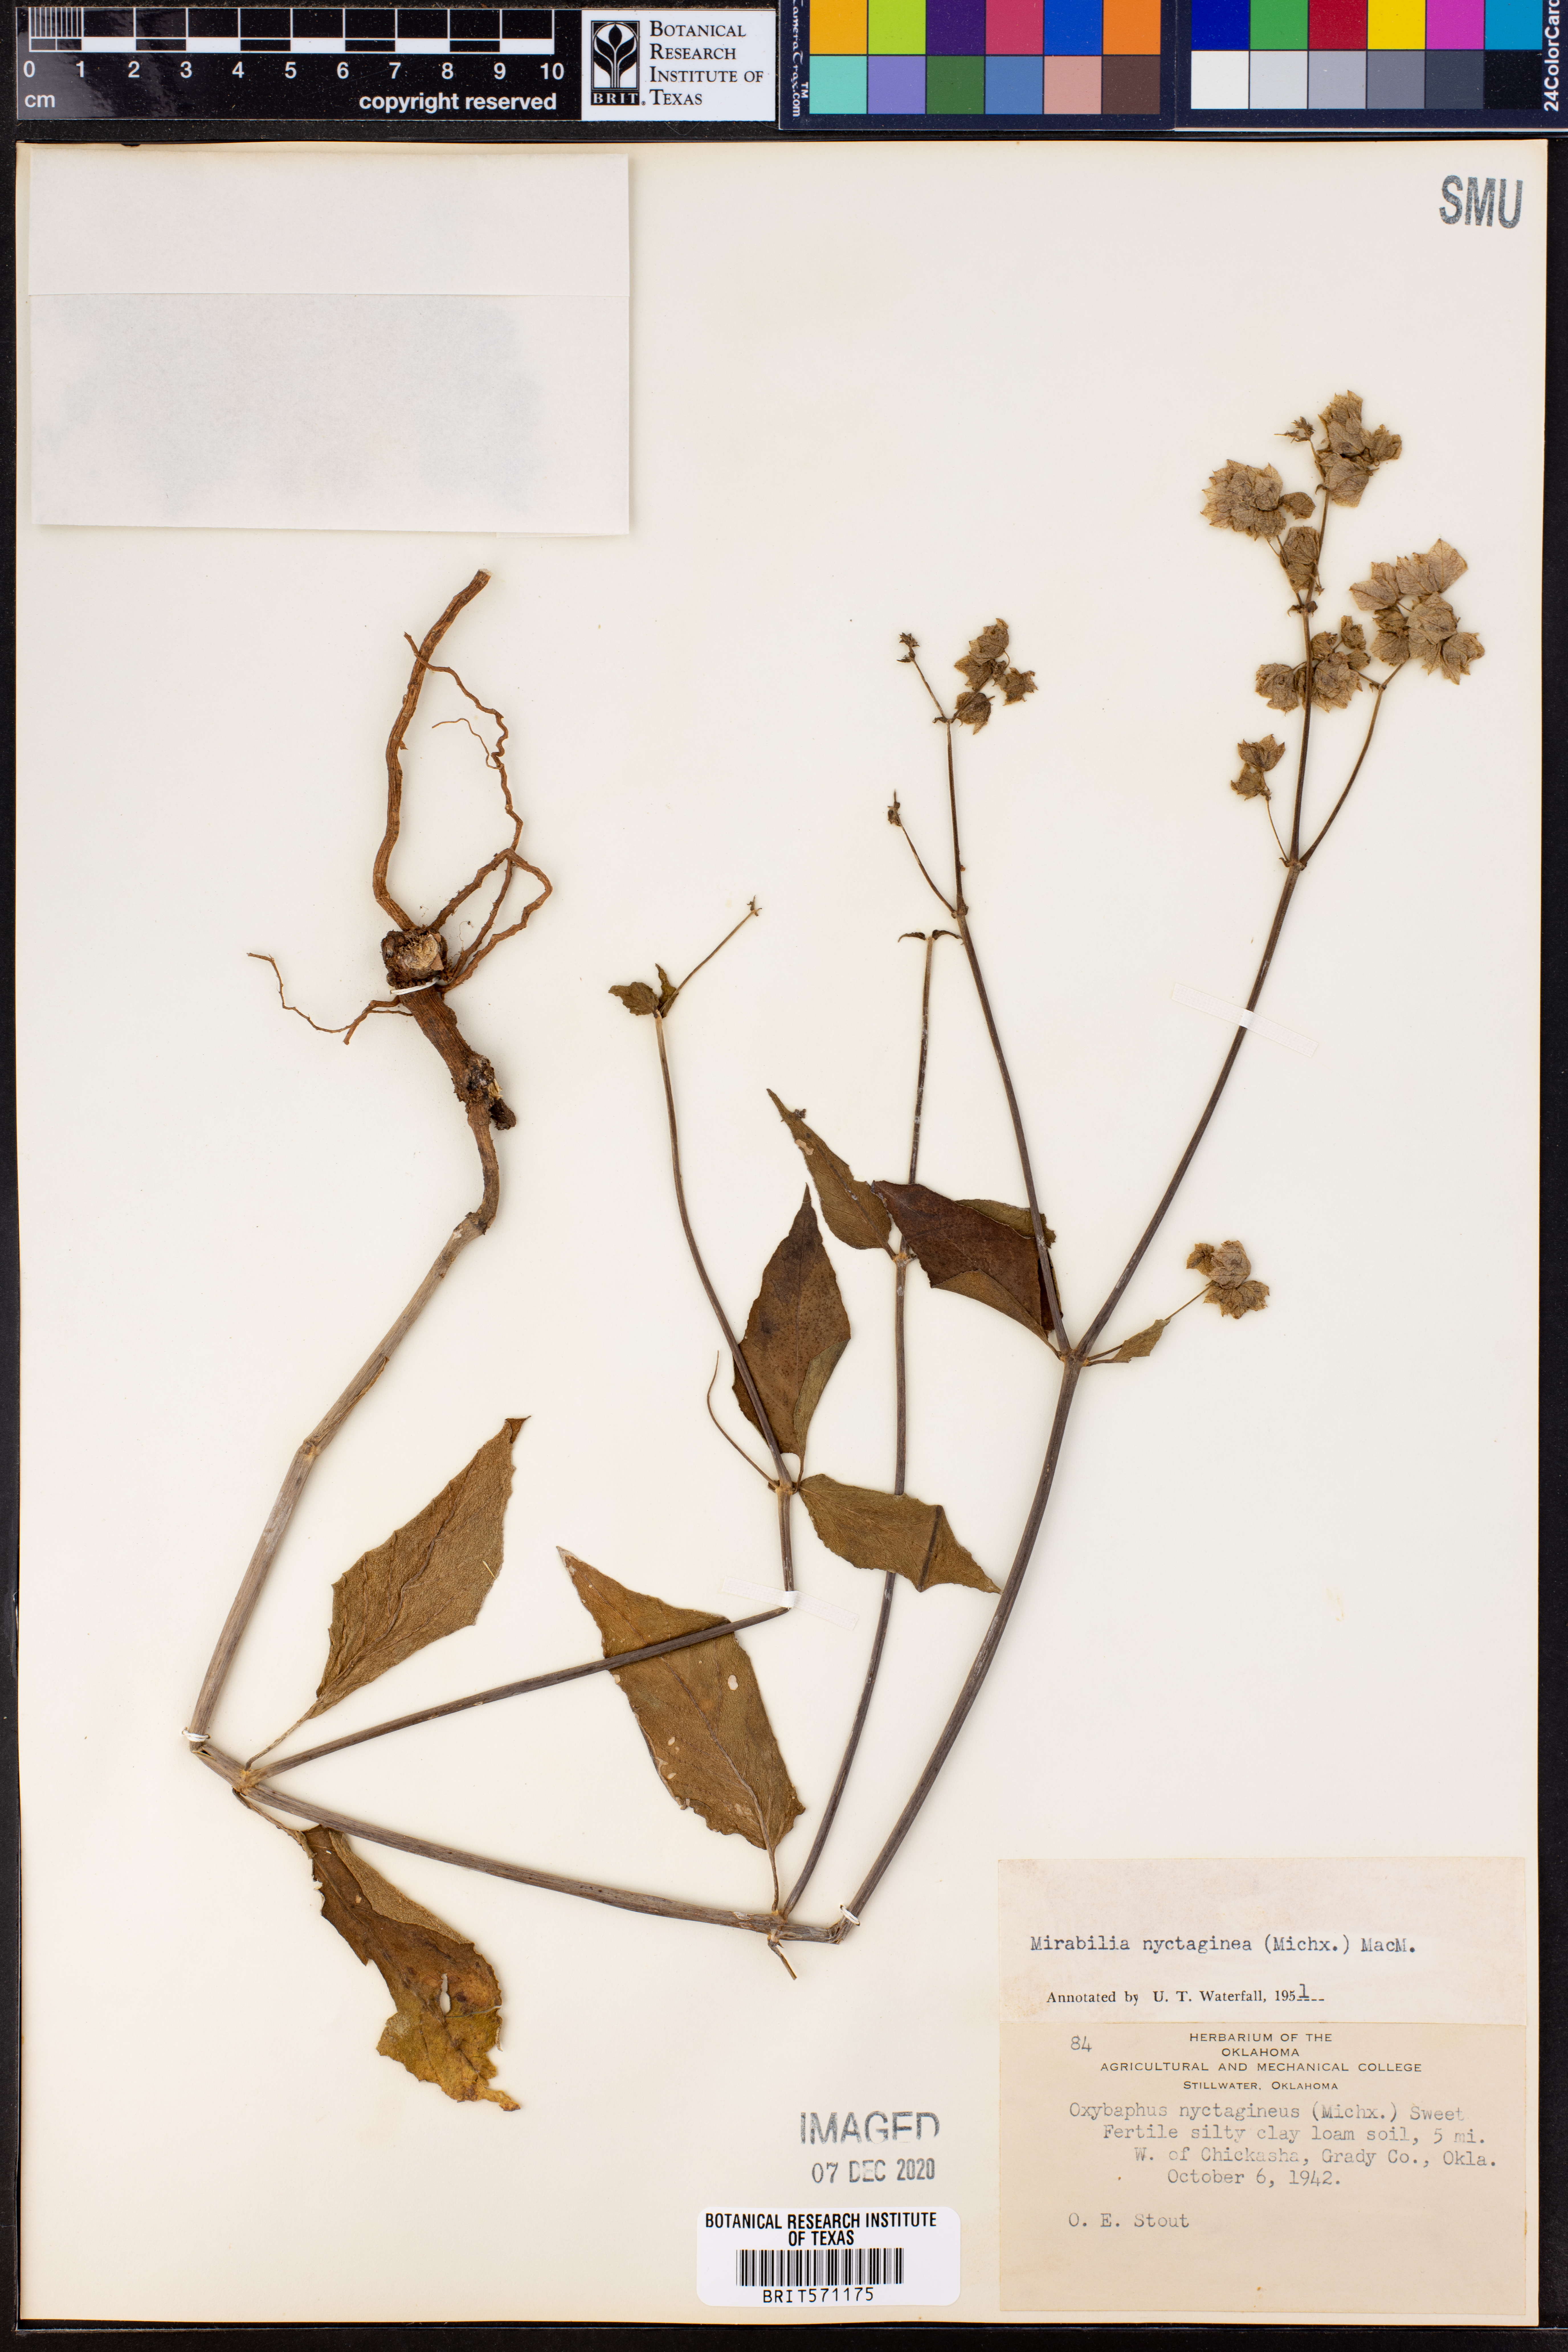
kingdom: Plantae
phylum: Tracheophyta
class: Magnoliopsida
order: Caryophyllales
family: Nyctaginaceae
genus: Mirabilis
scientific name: Mirabilis nyctaginea
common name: Umbrella wort
